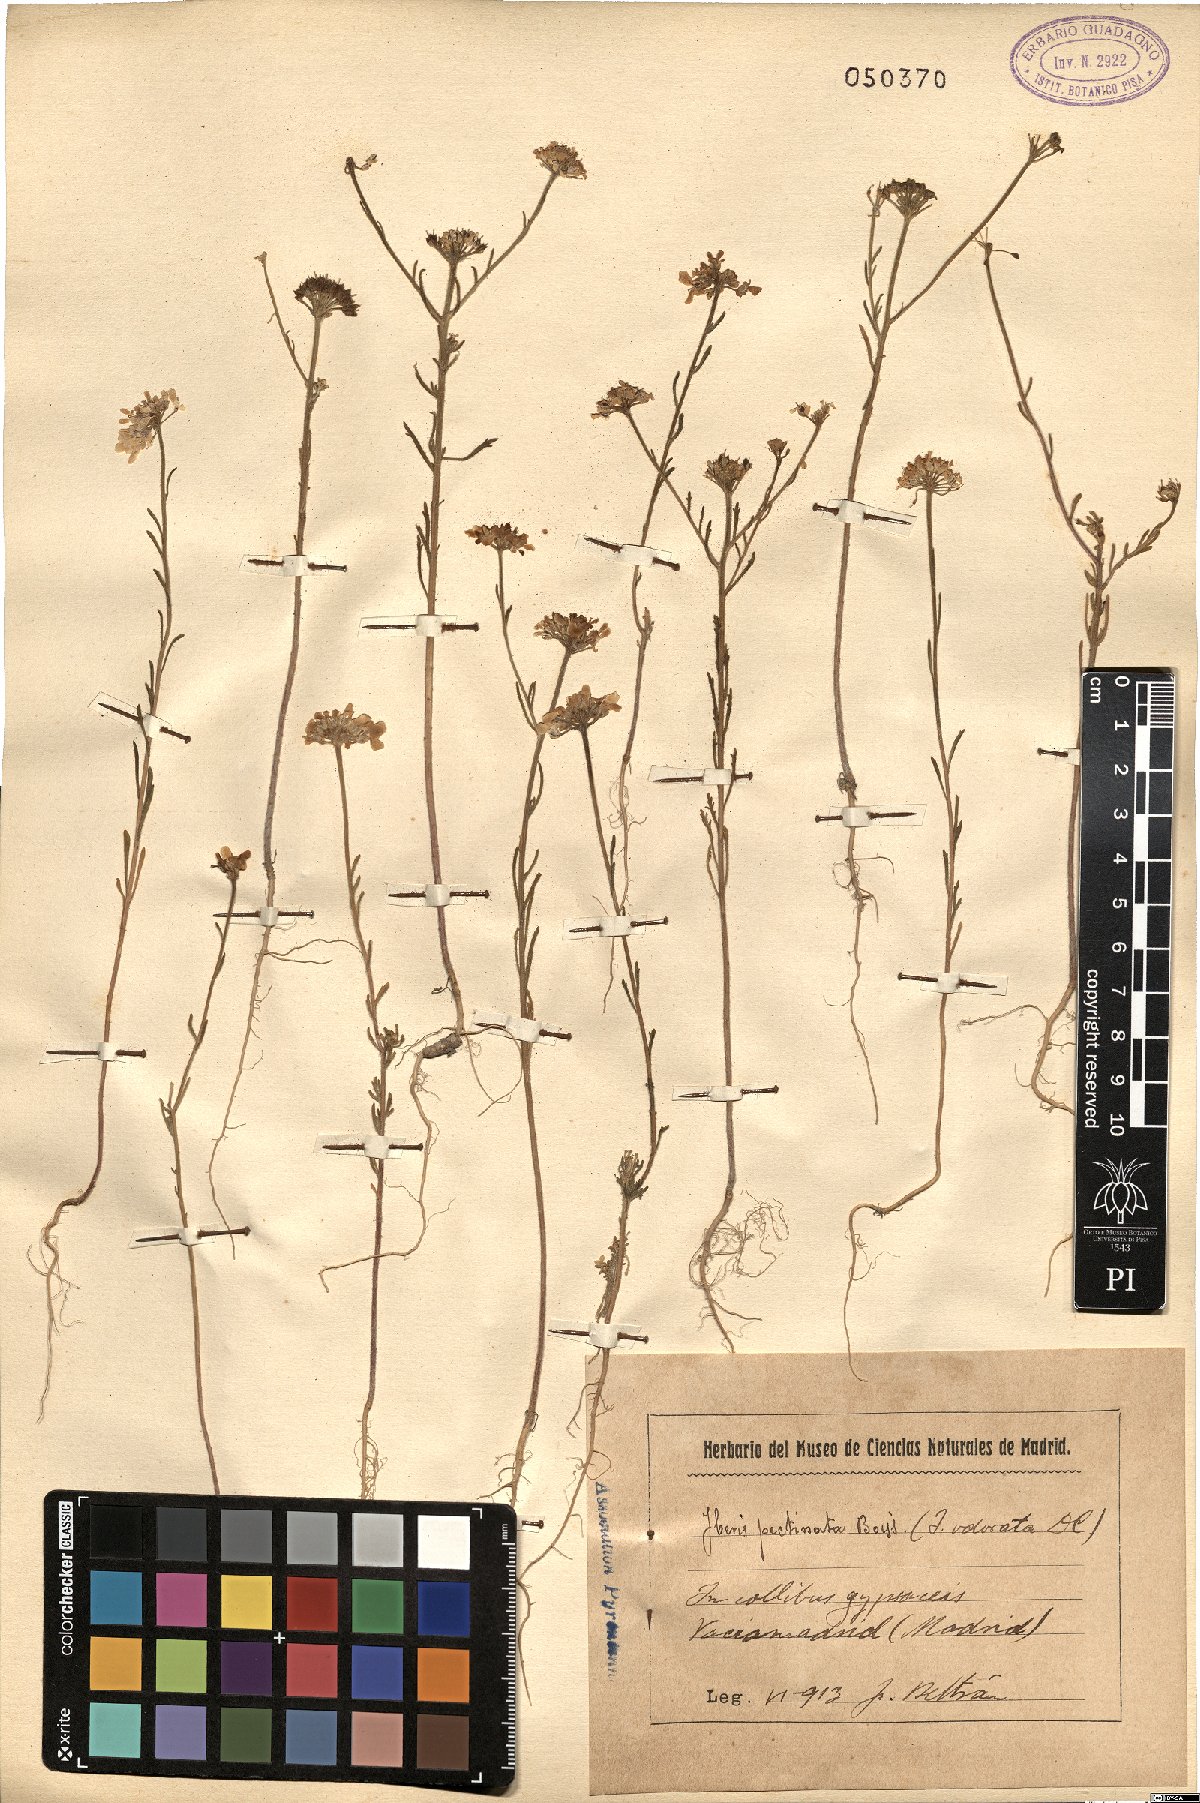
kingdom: Plantae
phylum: Tracheophyta
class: Magnoliopsida
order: Brassicales
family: Brassicaceae
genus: Iberis
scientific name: Iberis pectinata
